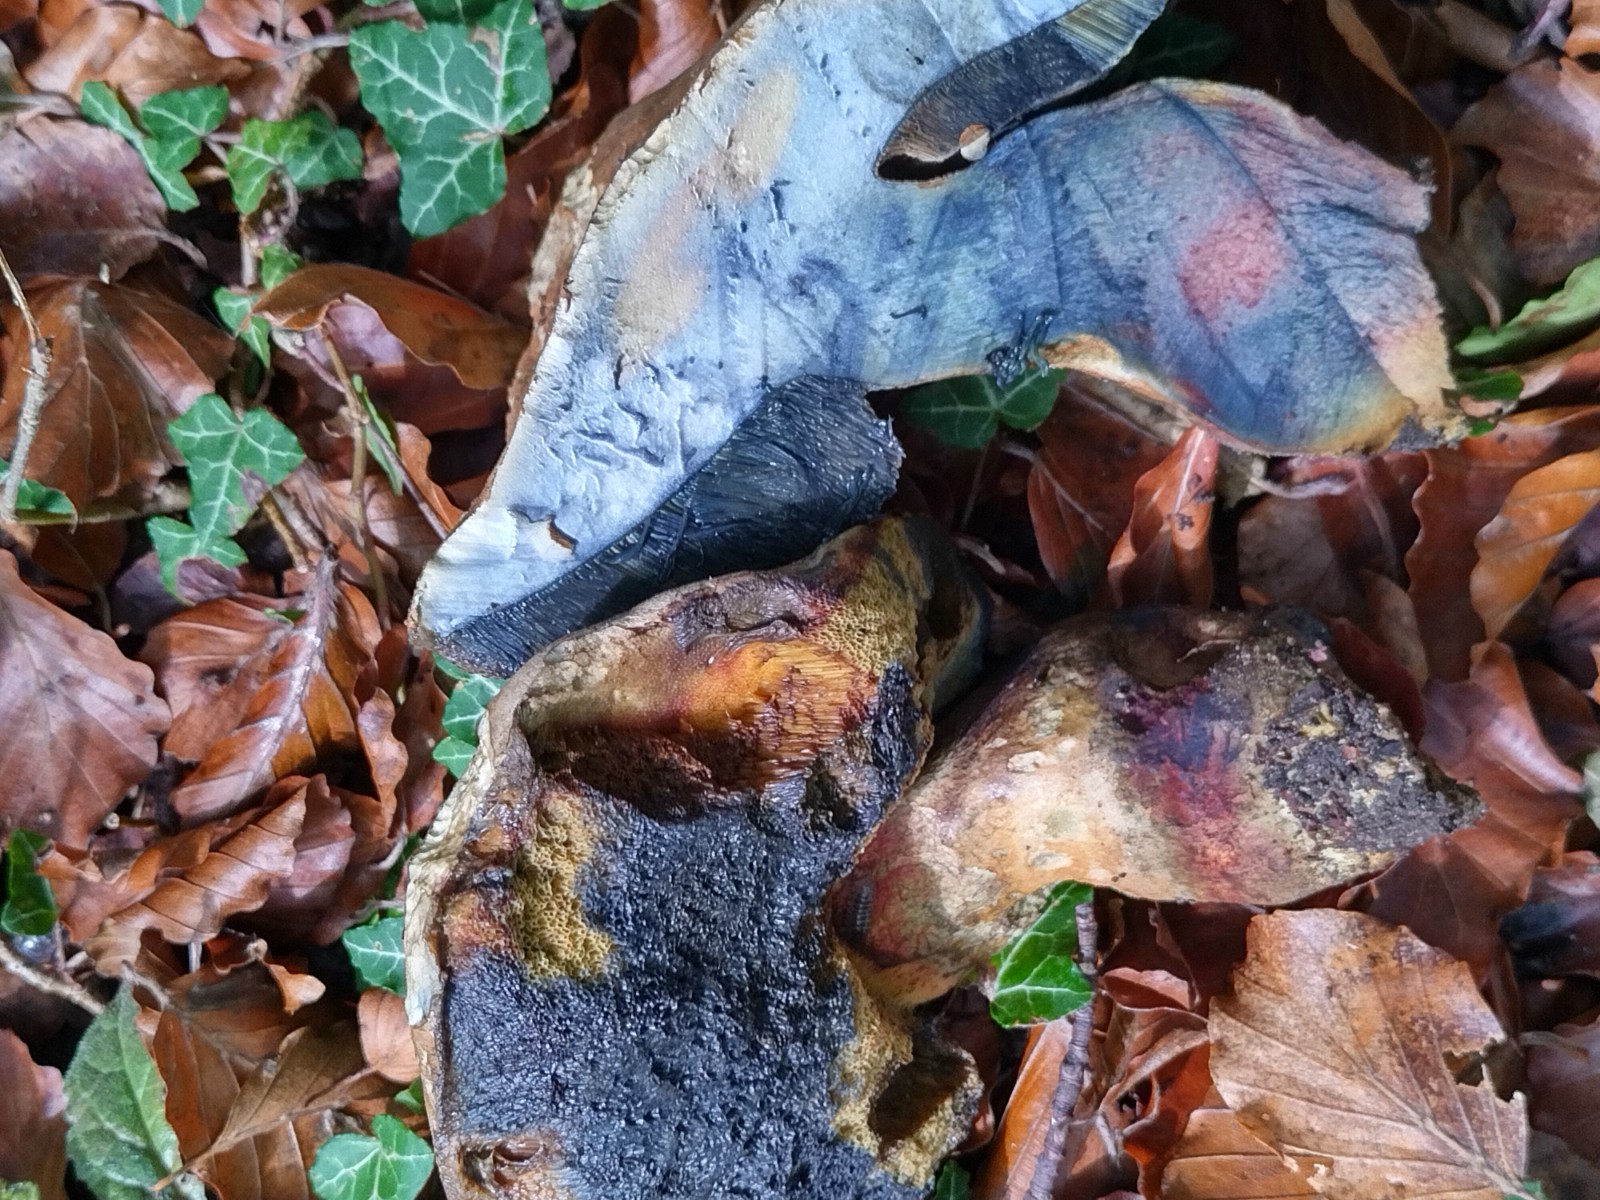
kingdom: Fungi
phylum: Basidiomycota
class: Agaricomycetes
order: Boletales
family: Boletaceae
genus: Suillellus
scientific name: Suillellus queletii
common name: glatstokket indigorørhat
